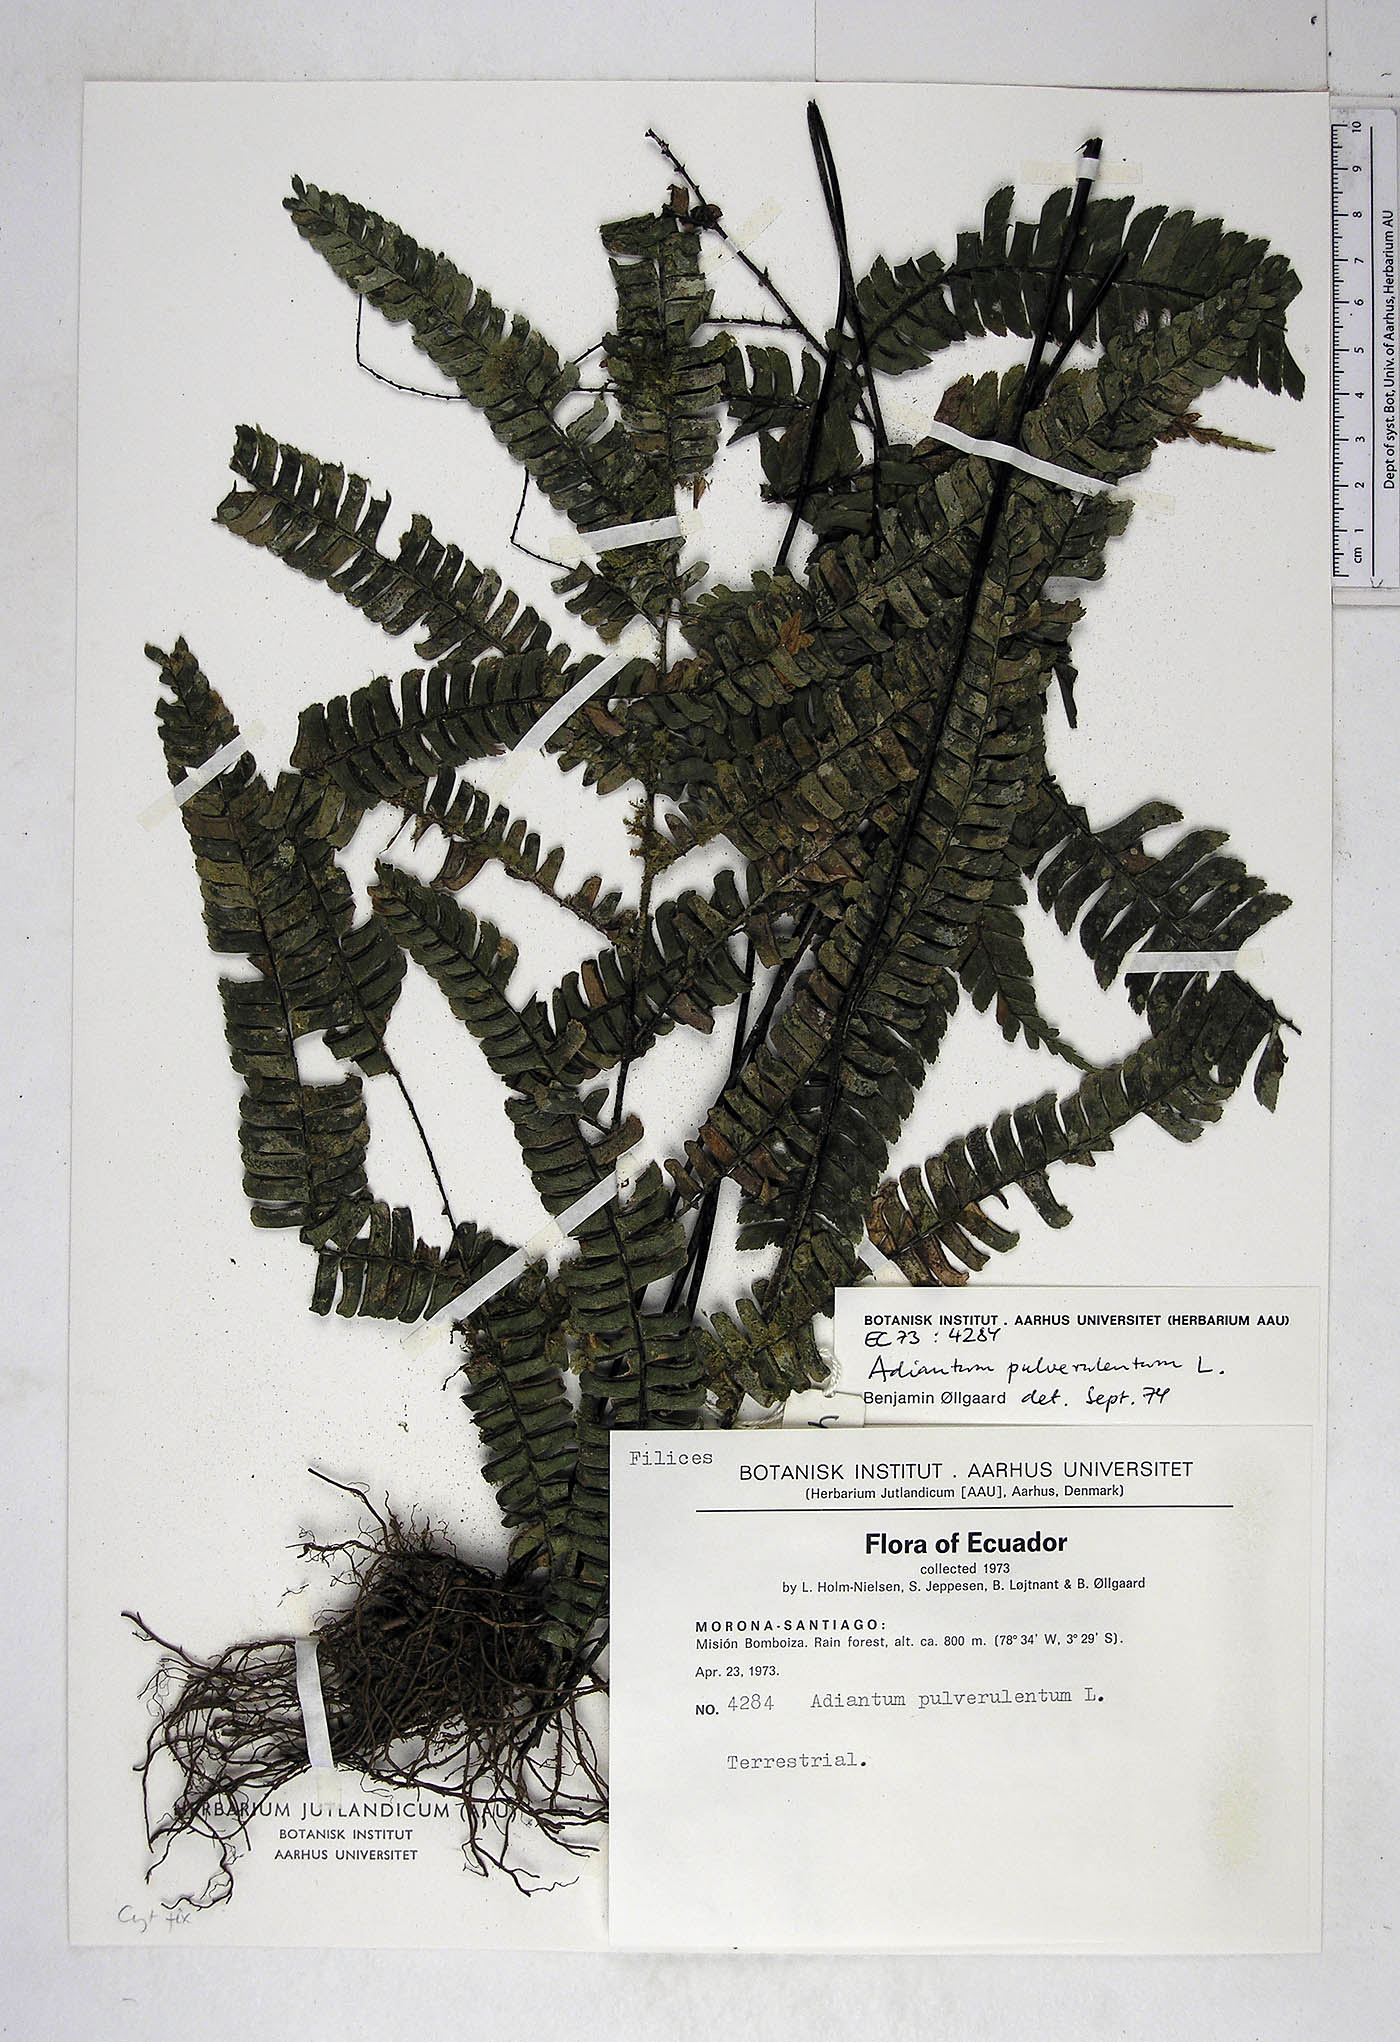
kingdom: Plantae
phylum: Tracheophyta
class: Polypodiopsida
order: Polypodiales
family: Pteridaceae
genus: Adiantum
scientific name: Adiantum pulverulentum
